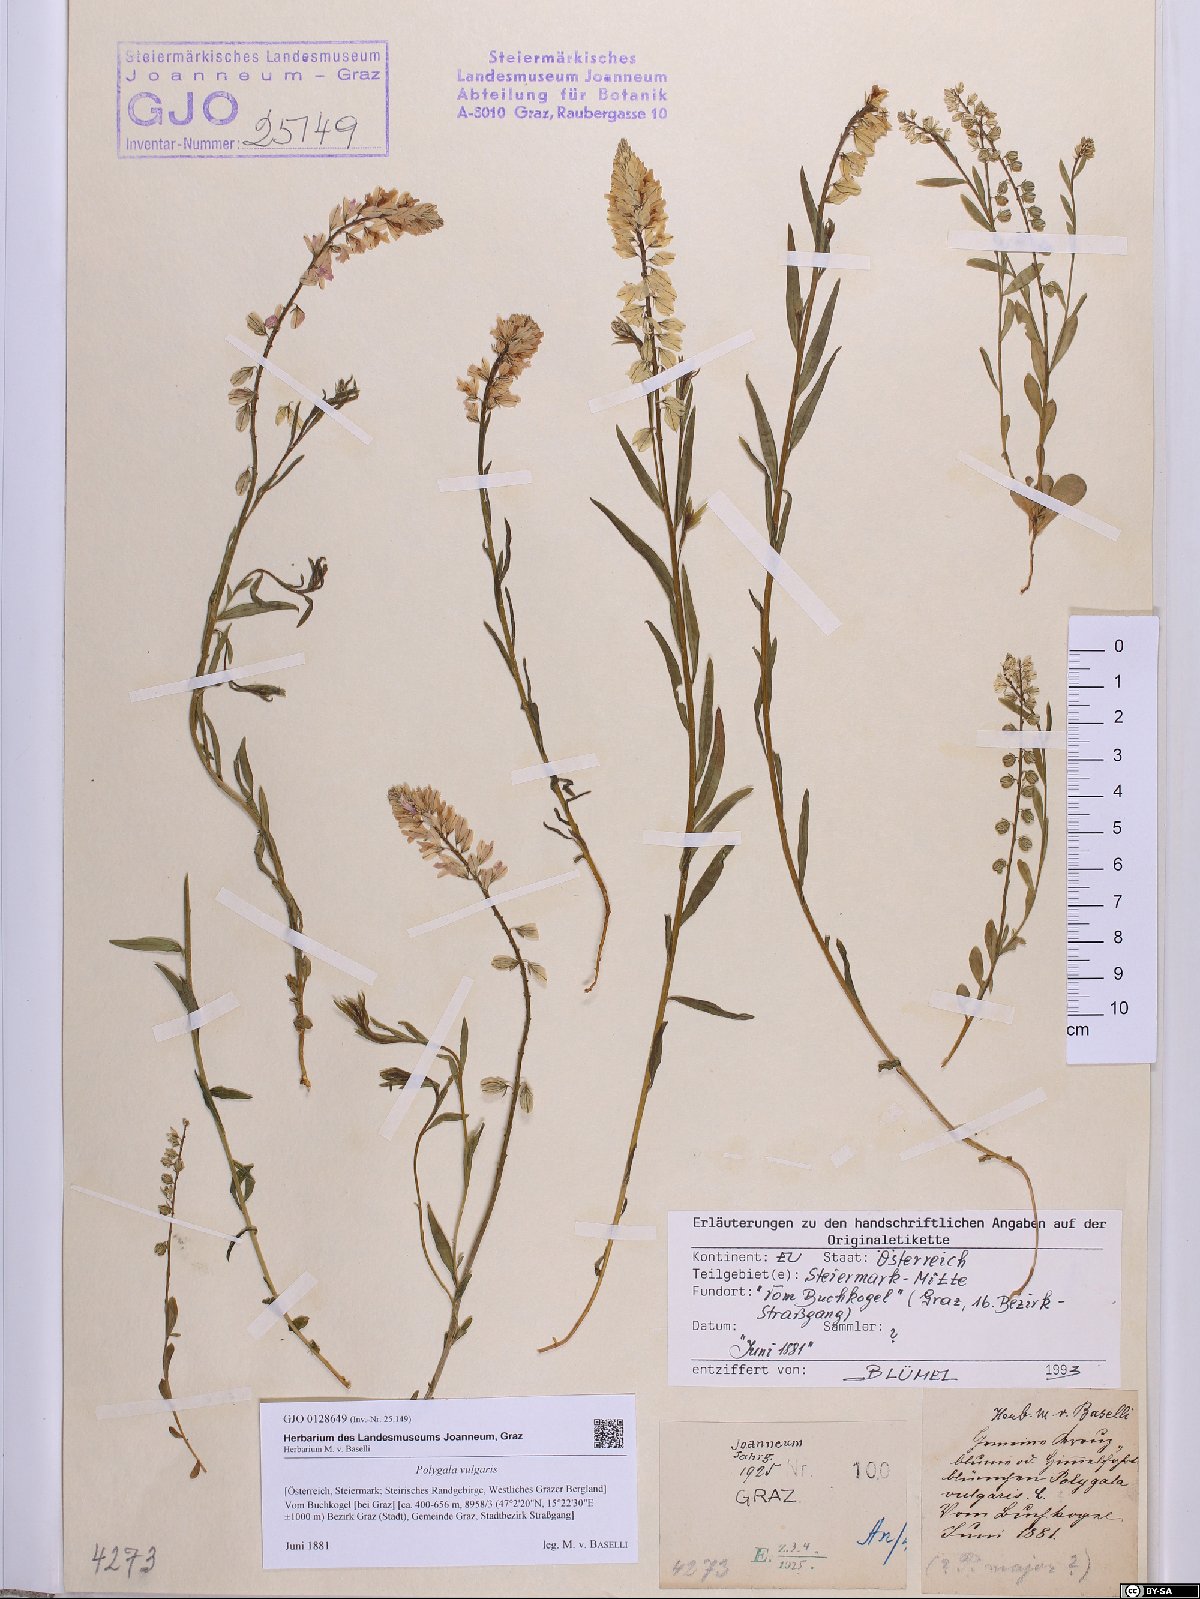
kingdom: Plantae
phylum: Tracheophyta
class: Magnoliopsida
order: Fabales
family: Polygalaceae
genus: Polygala
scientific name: Polygala vulgaris
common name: Common milkwort
